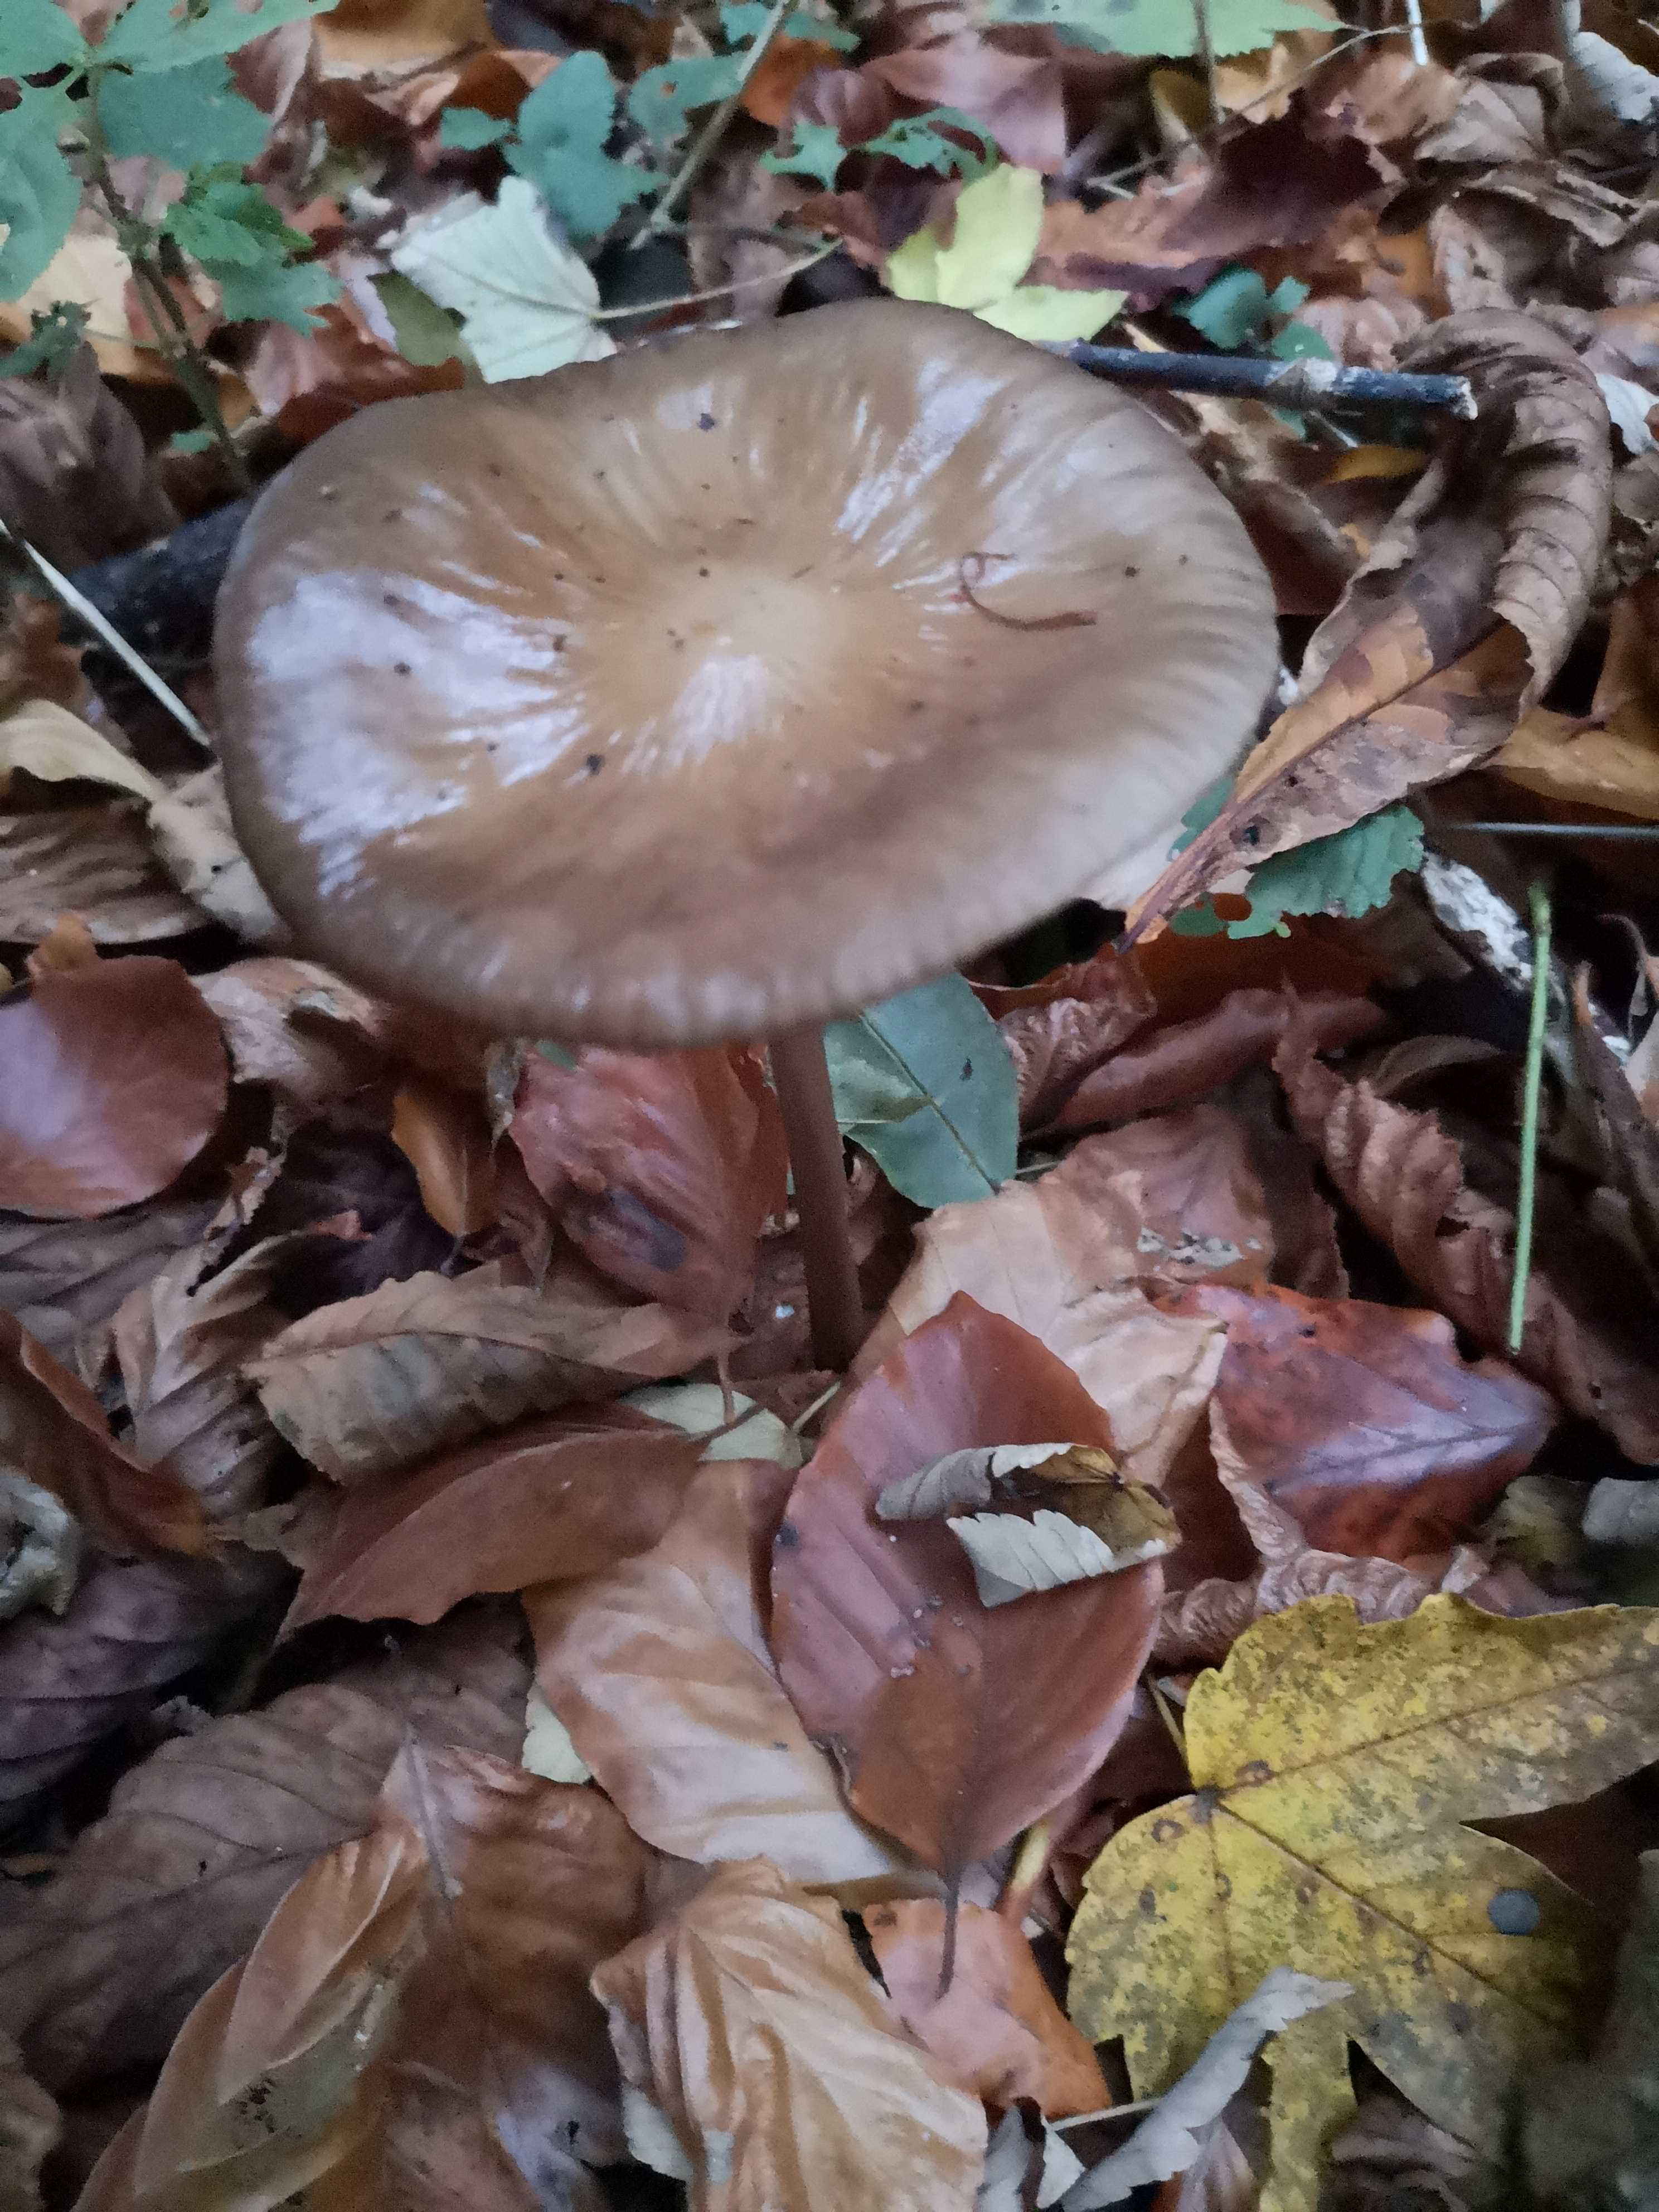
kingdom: Fungi
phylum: Basidiomycota
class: Agaricomycetes
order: Agaricales
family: Physalacriaceae
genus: Hymenopellis
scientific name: Hymenopellis radicata
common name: almindelig pælerodshat
